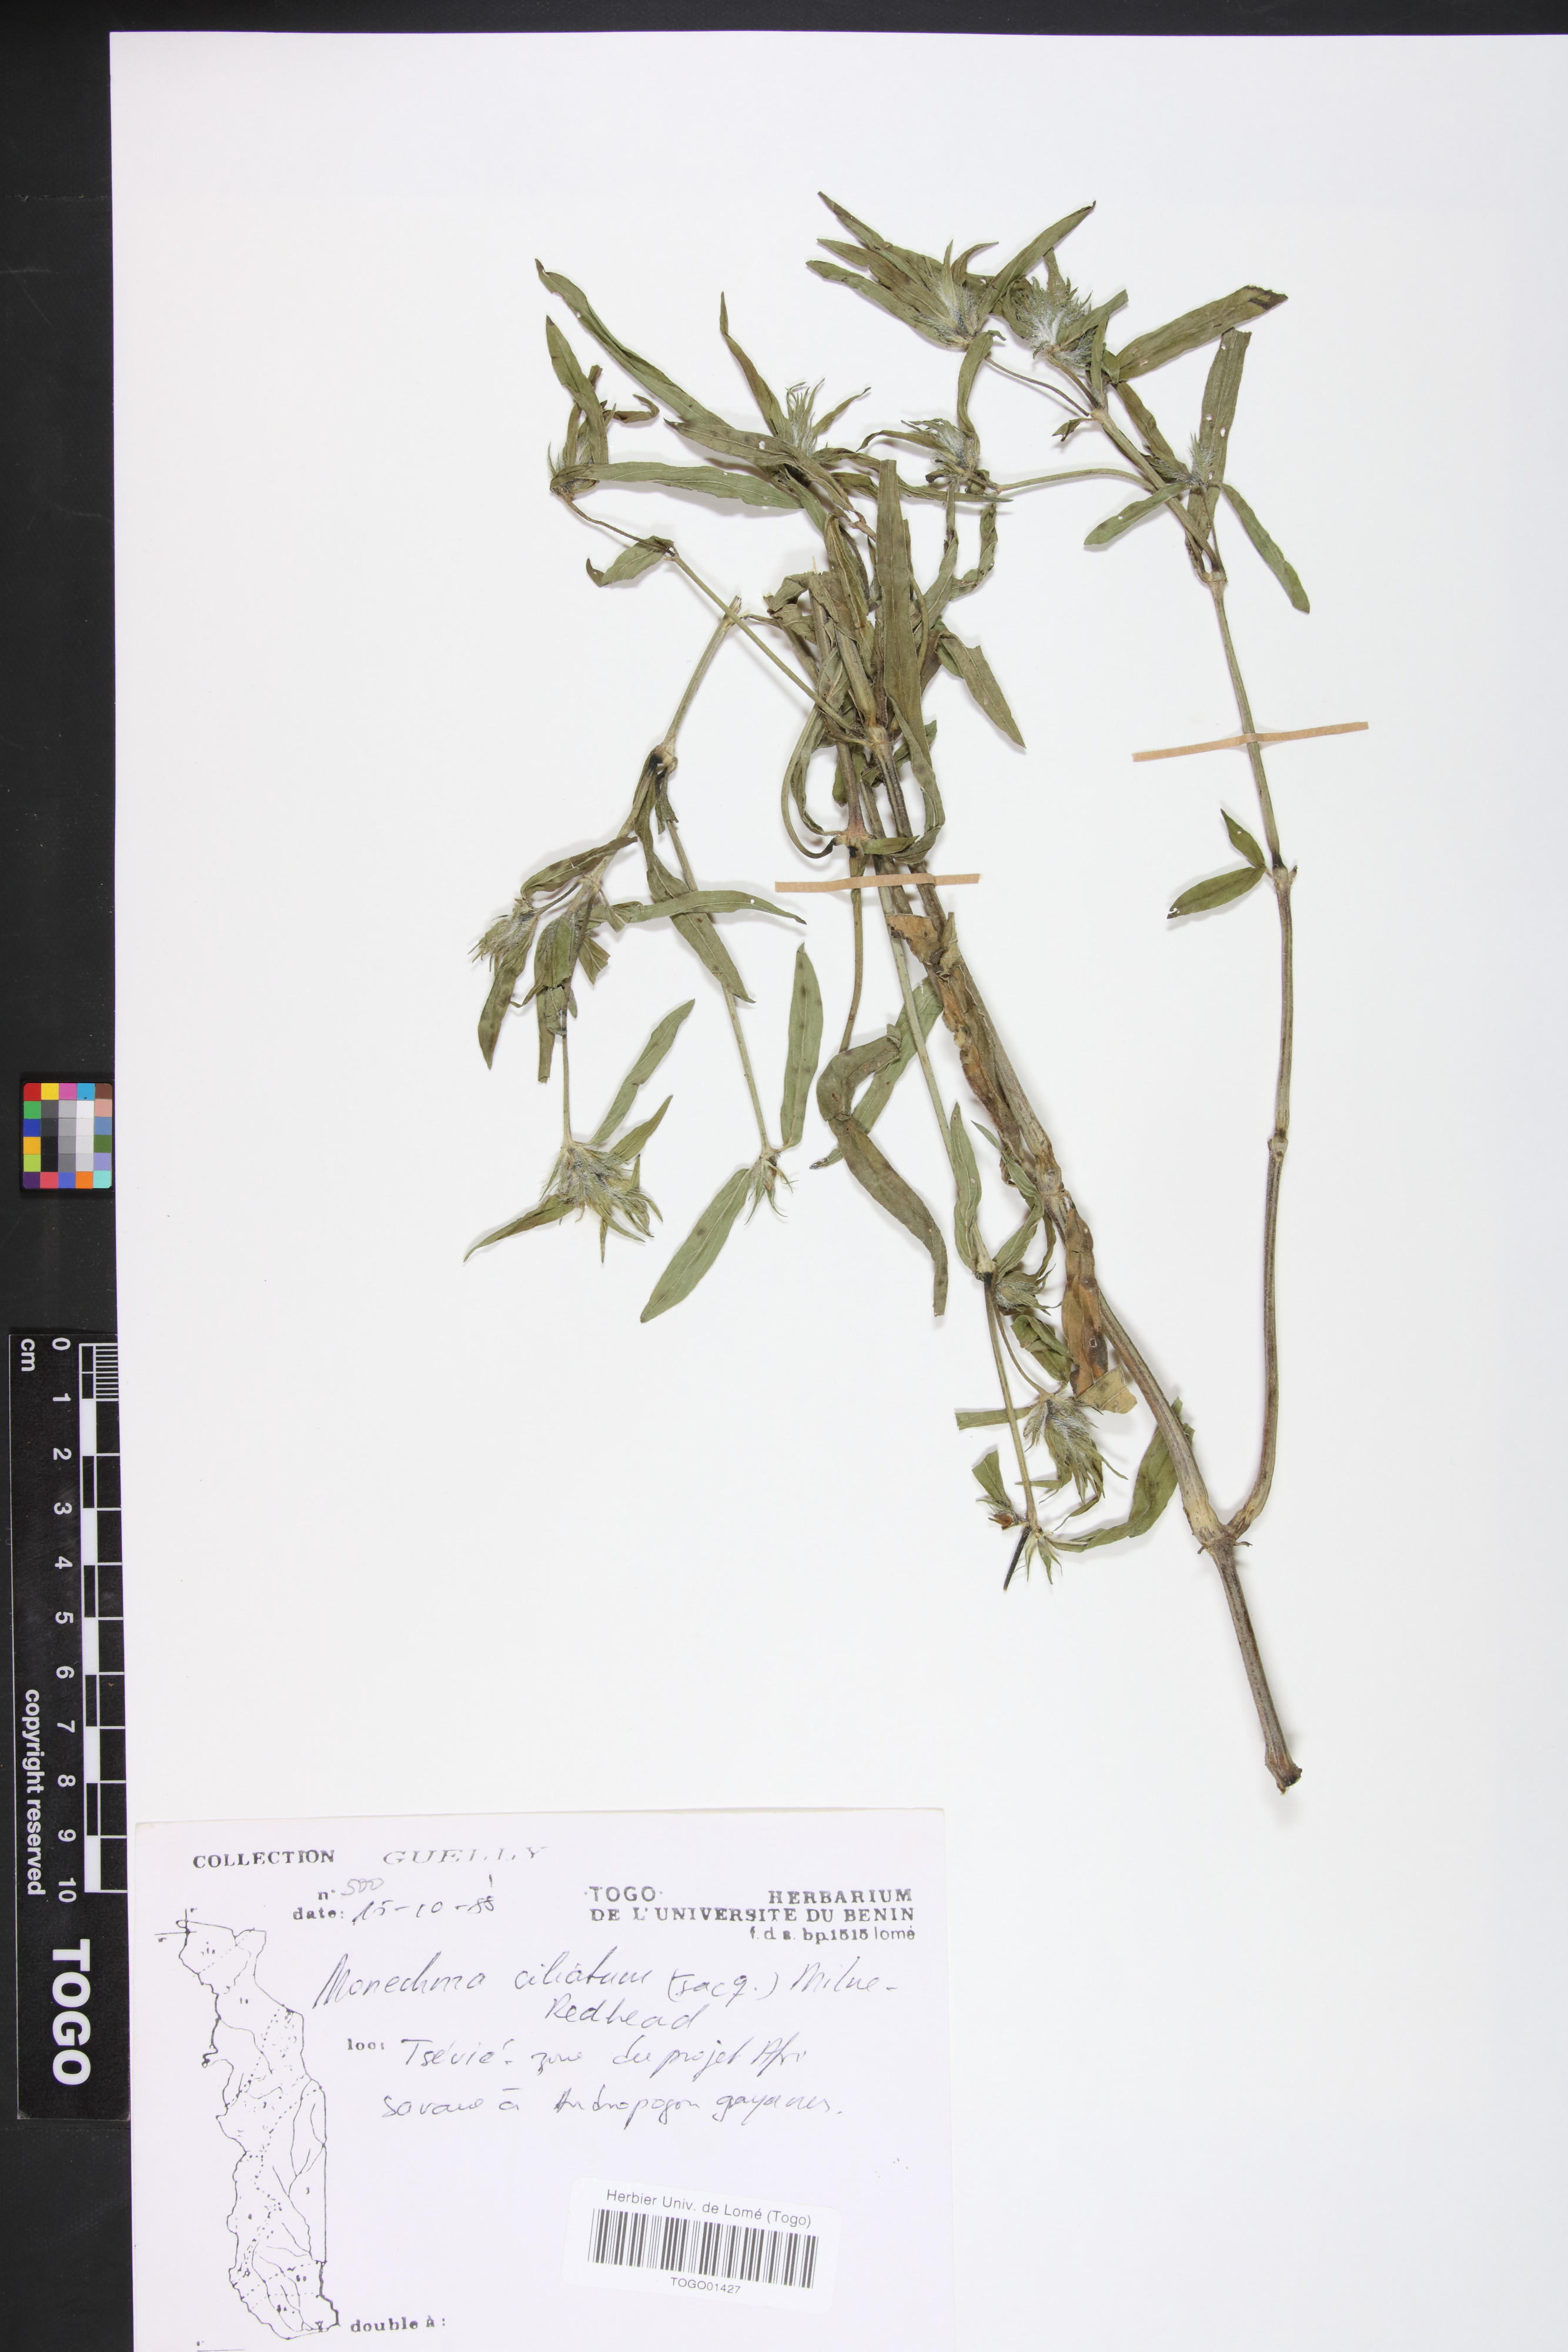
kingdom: Plantae
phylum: Tracheophyta
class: Magnoliopsida
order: Lamiales
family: Acanthaceae
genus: Pogonospermum
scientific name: Pogonospermum ciliare
